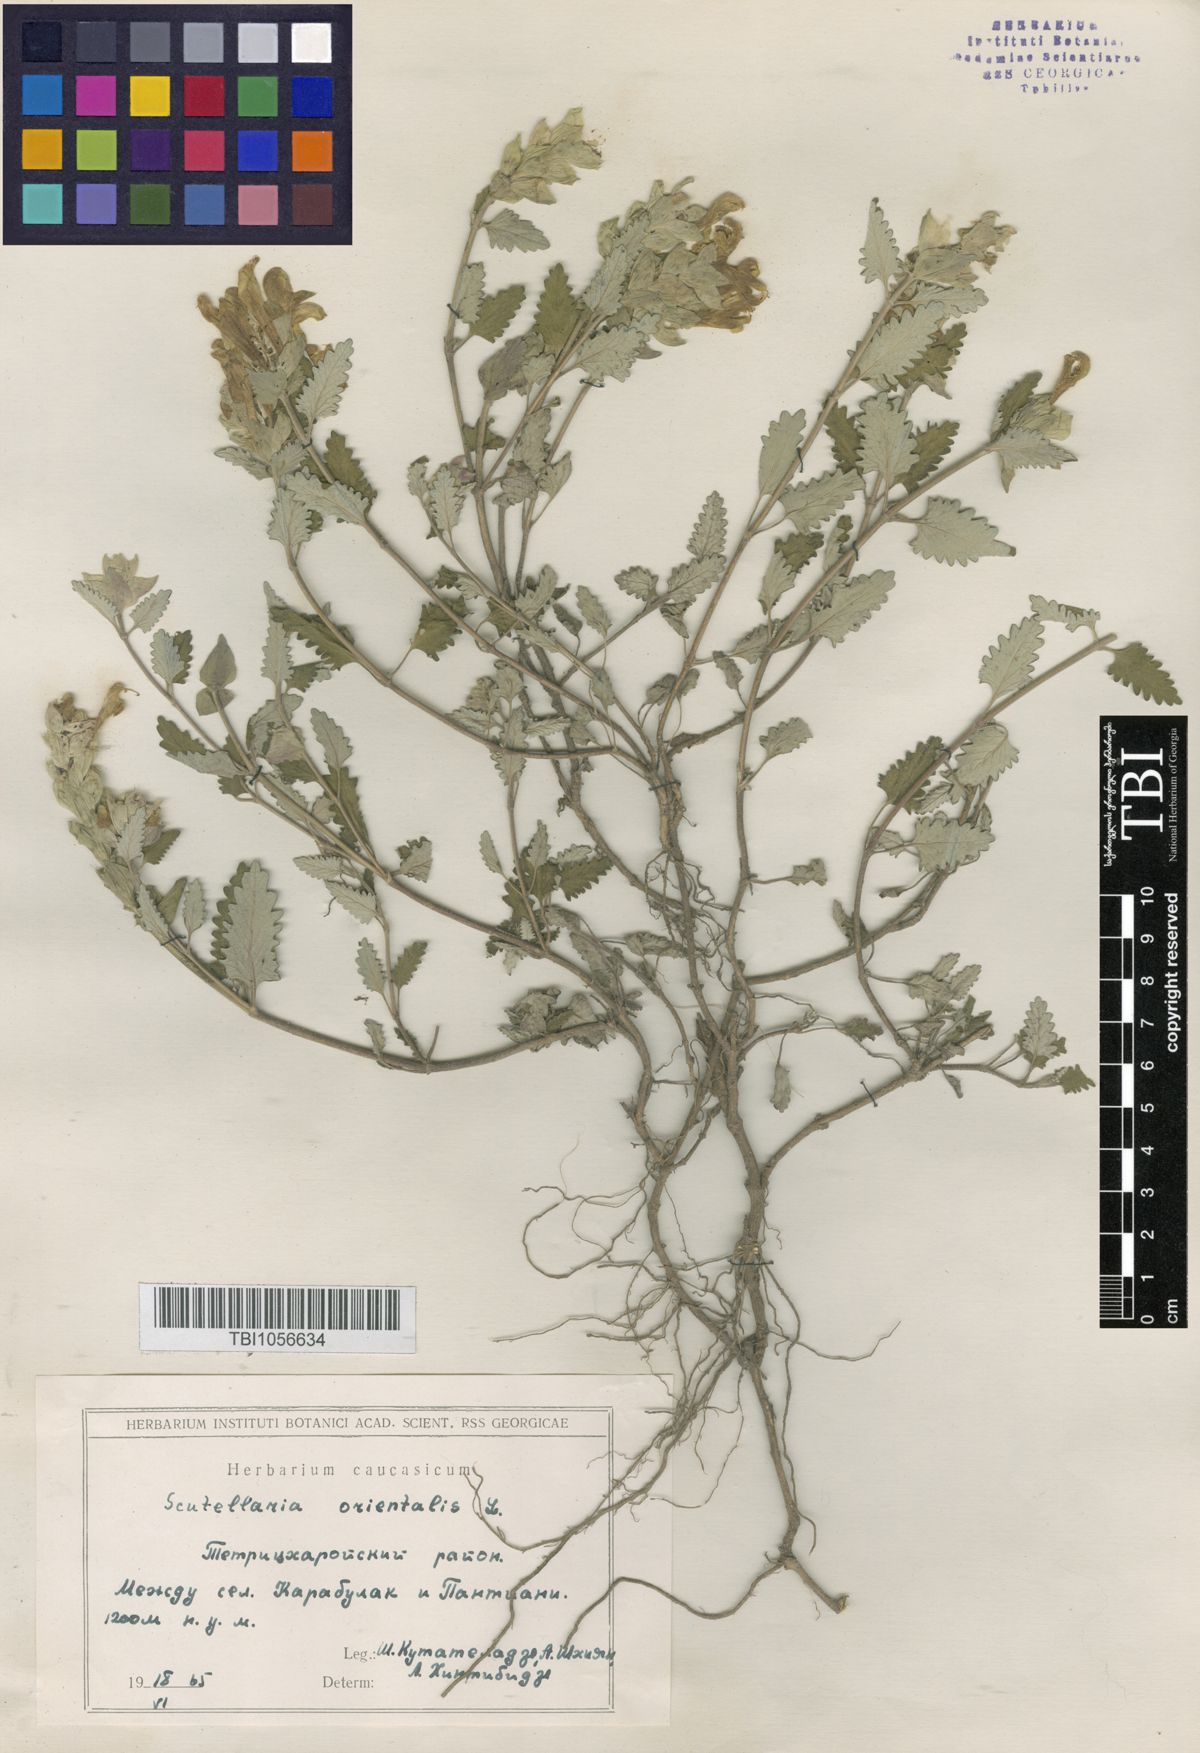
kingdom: Plantae
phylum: Tracheophyta
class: Magnoliopsida
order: Lamiales
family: Lamiaceae
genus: Scutellaria
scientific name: Scutellaria orientalis
